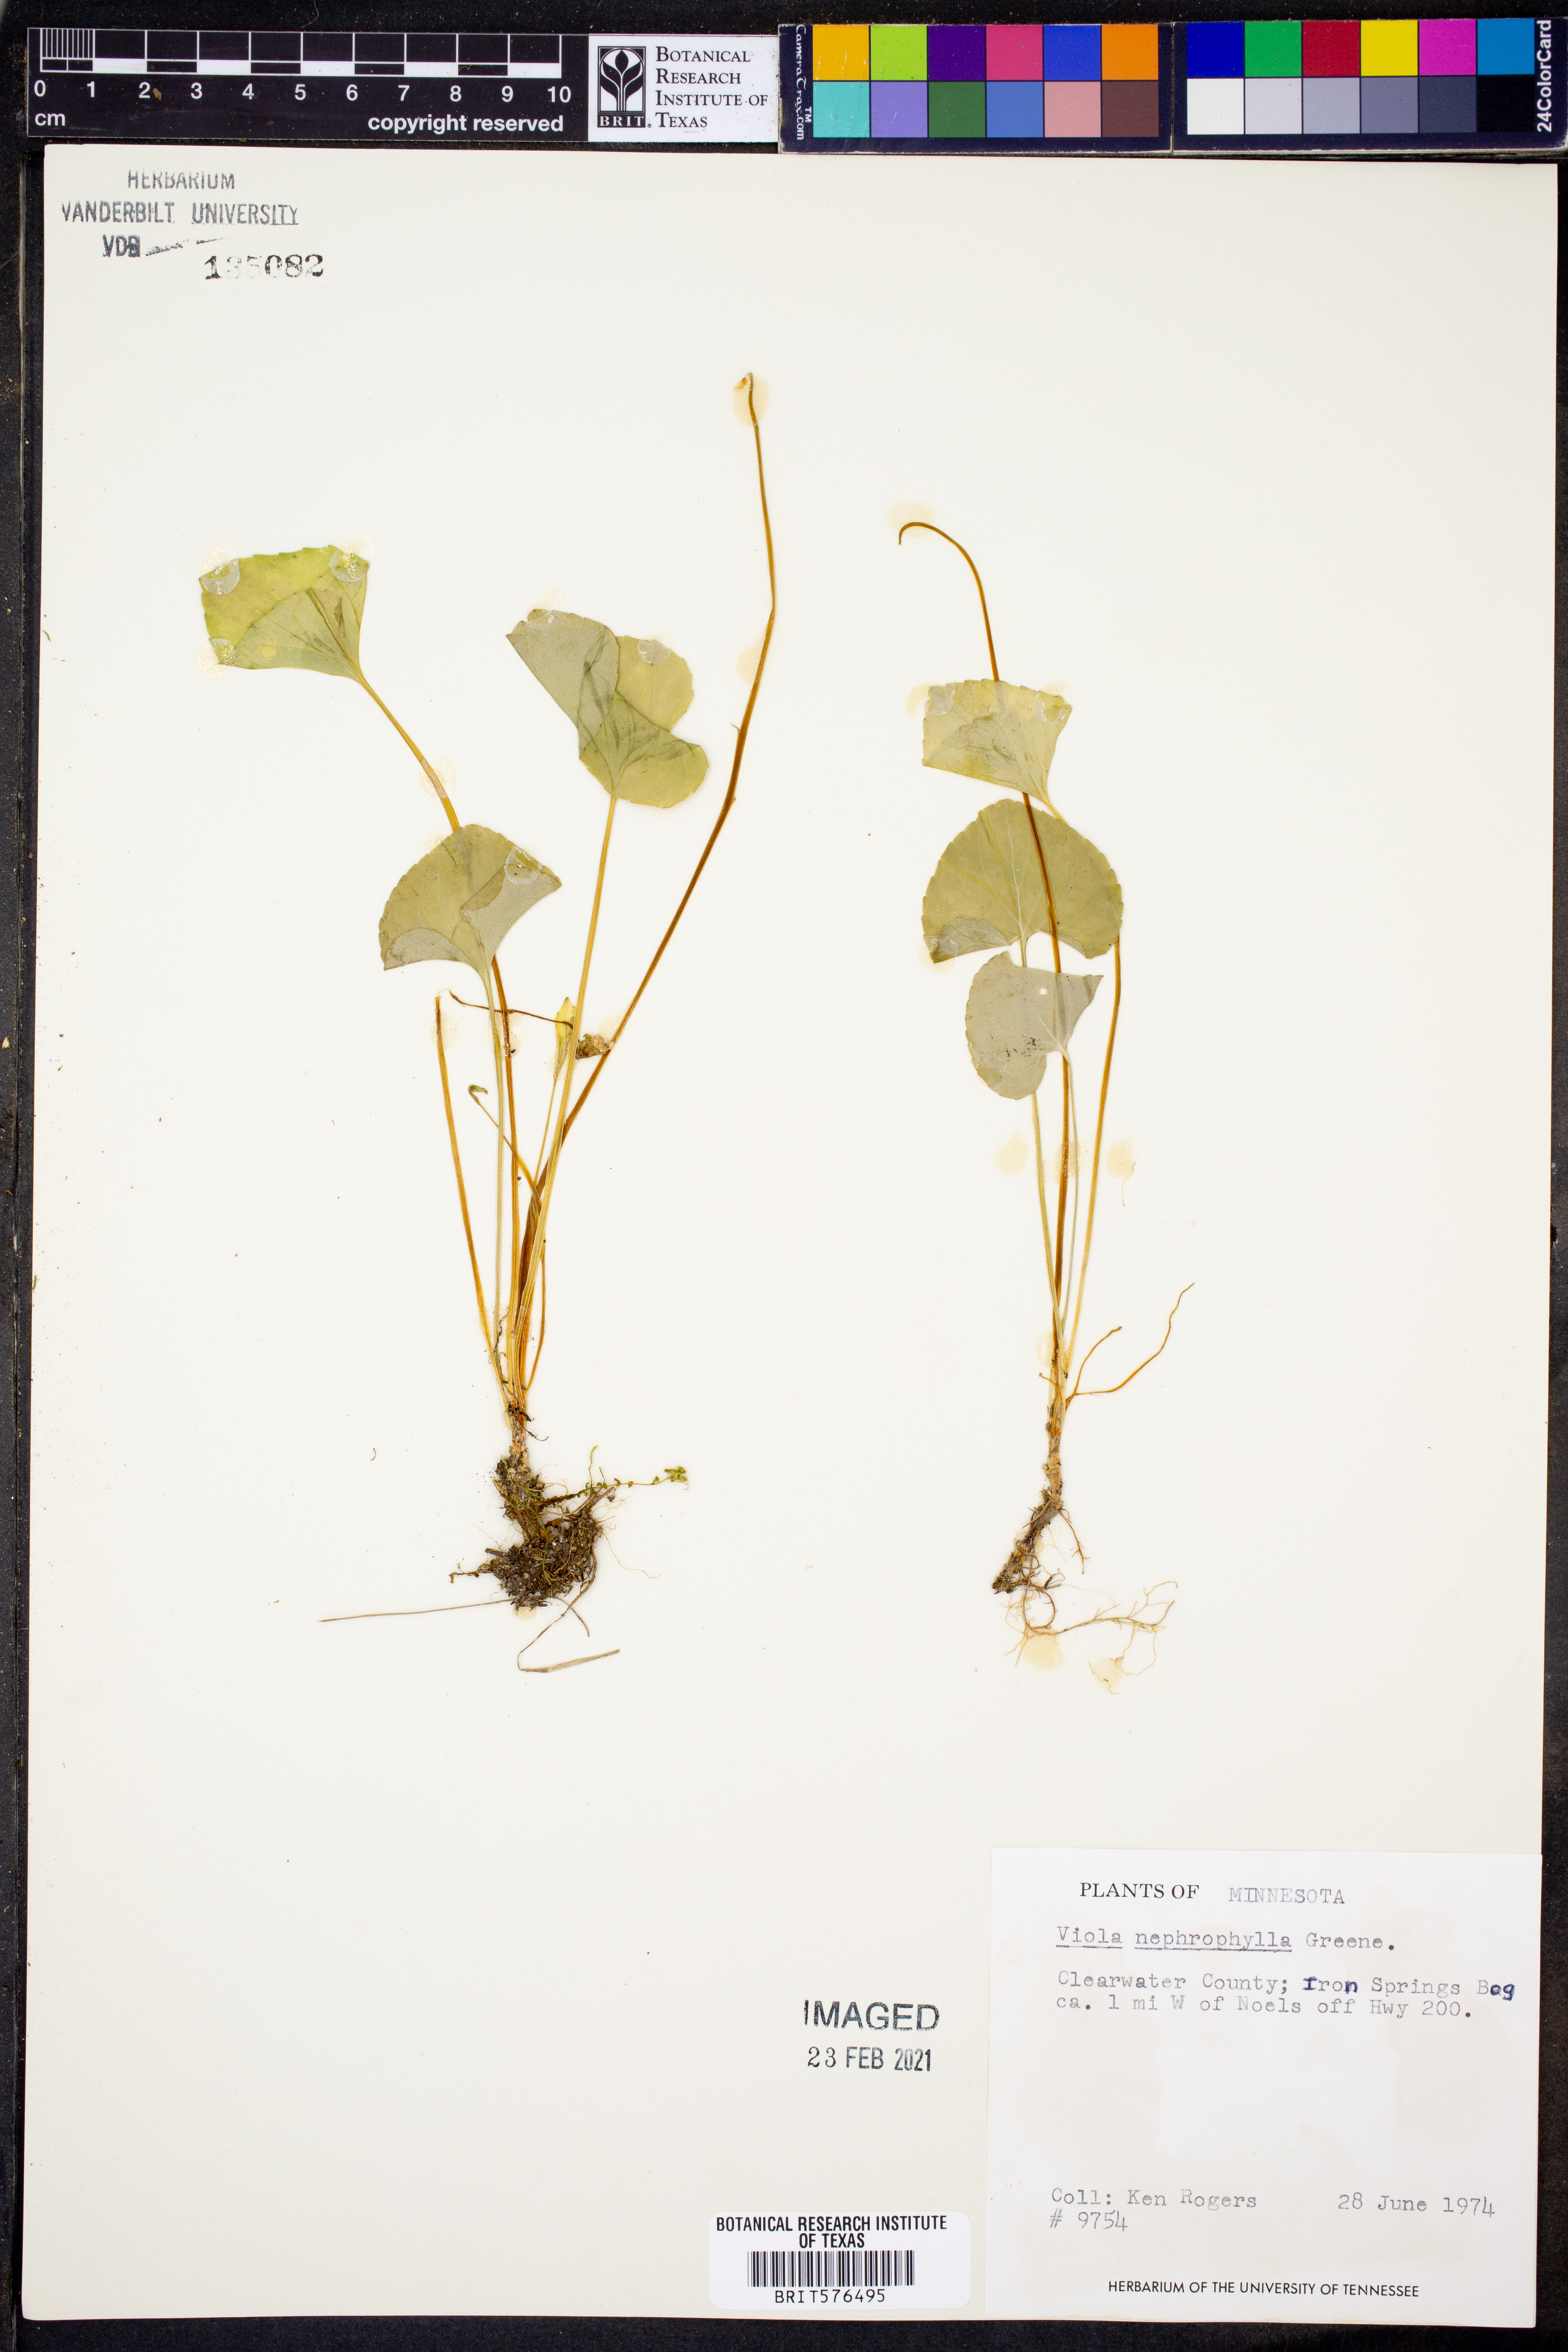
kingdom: Plantae
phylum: Tracheophyta
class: Magnoliopsida
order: Malpighiales
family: Violaceae
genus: Viola
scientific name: Viola nephrophylla
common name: Blue meadow violet
